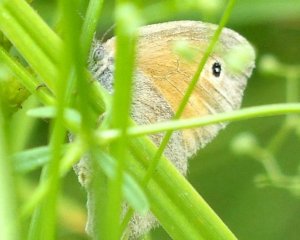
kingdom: Animalia
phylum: Arthropoda
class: Insecta
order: Lepidoptera
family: Nymphalidae
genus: Coenonympha
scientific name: Coenonympha tullia
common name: Large Heath
